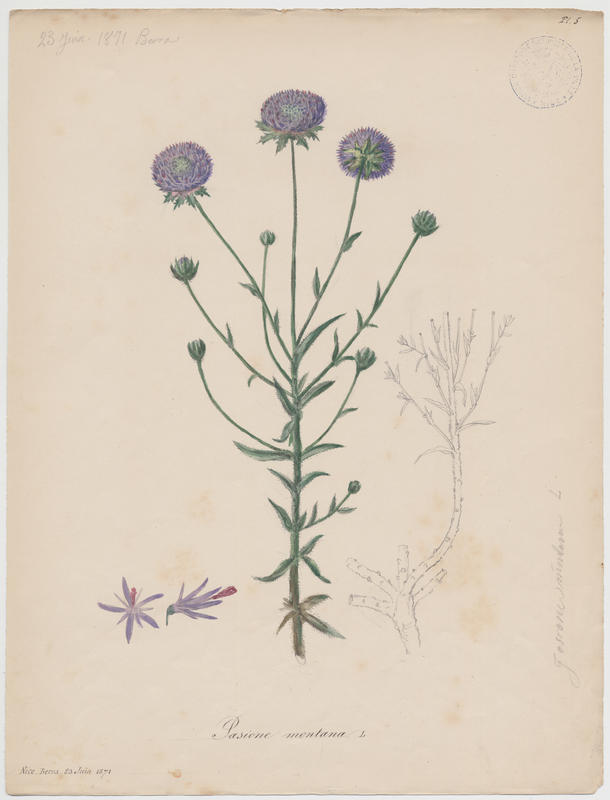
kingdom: Plantae
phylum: Tracheophyta
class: Magnoliopsida
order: Asterales
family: Campanulaceae
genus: Jasione
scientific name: Jasione montana
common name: Sheep's-bit
